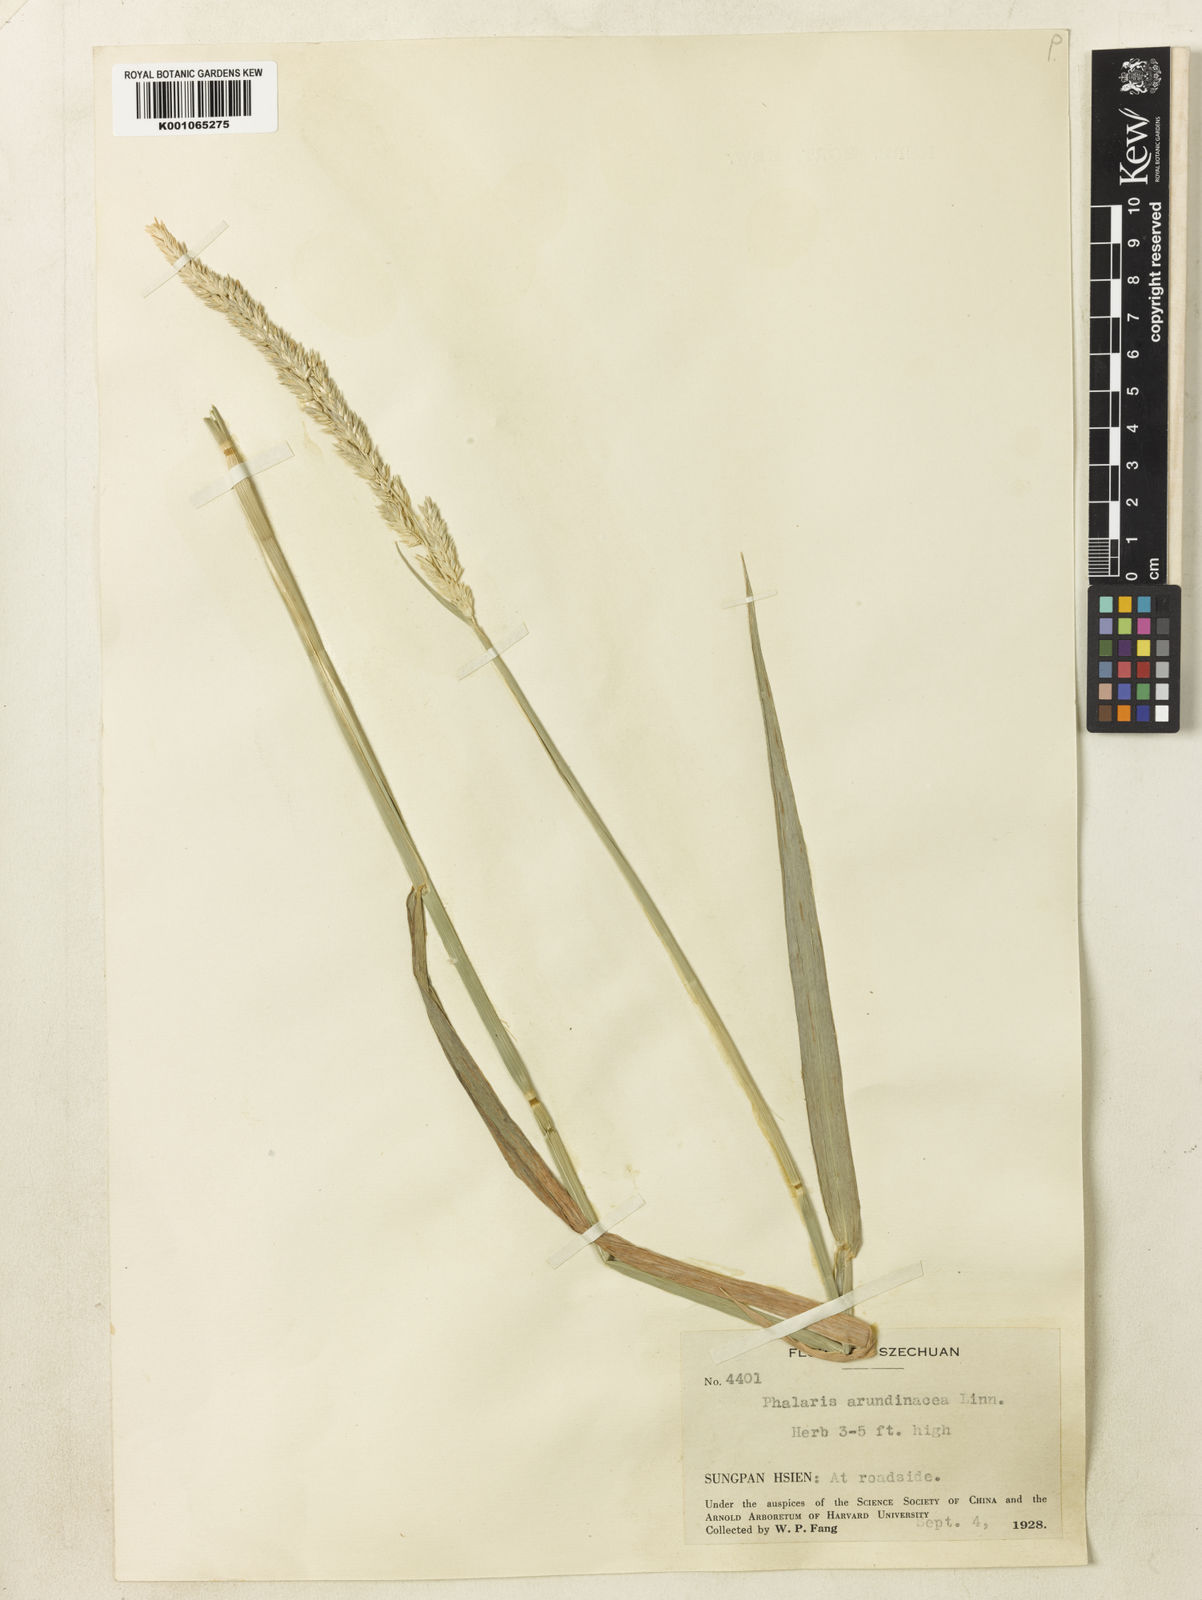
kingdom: Plantae
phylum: Tracheophyta
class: Liliopsida
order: Poales
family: Poaceae
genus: Phalaris
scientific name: Phalaris arundinacea
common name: Reed canary-grass
